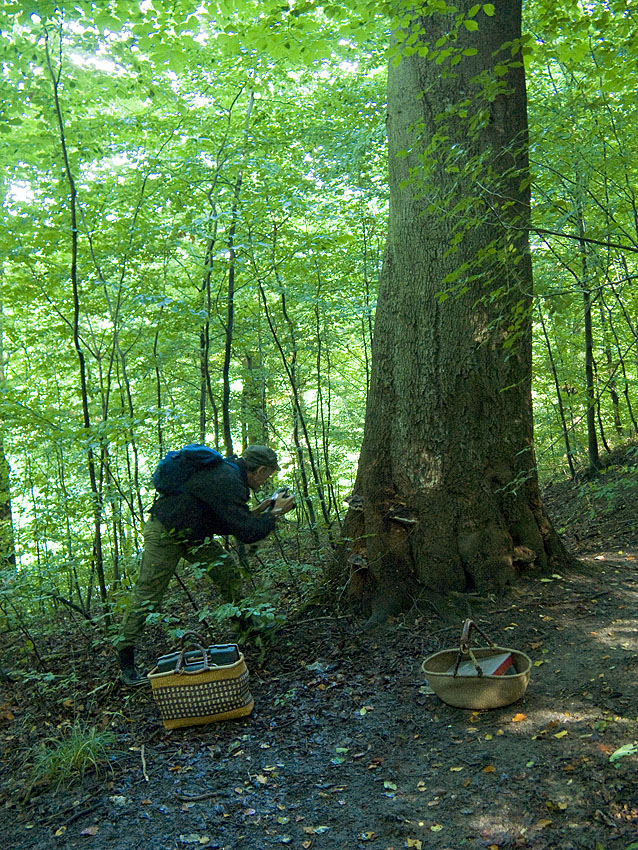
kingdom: Fungi
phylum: Basidiomycota
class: Agaricomycetes
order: Polyporales
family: Polyporaceae
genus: Ganoderma
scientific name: Ganoderma pfeifferi
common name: kobberrød lakporesvamp
